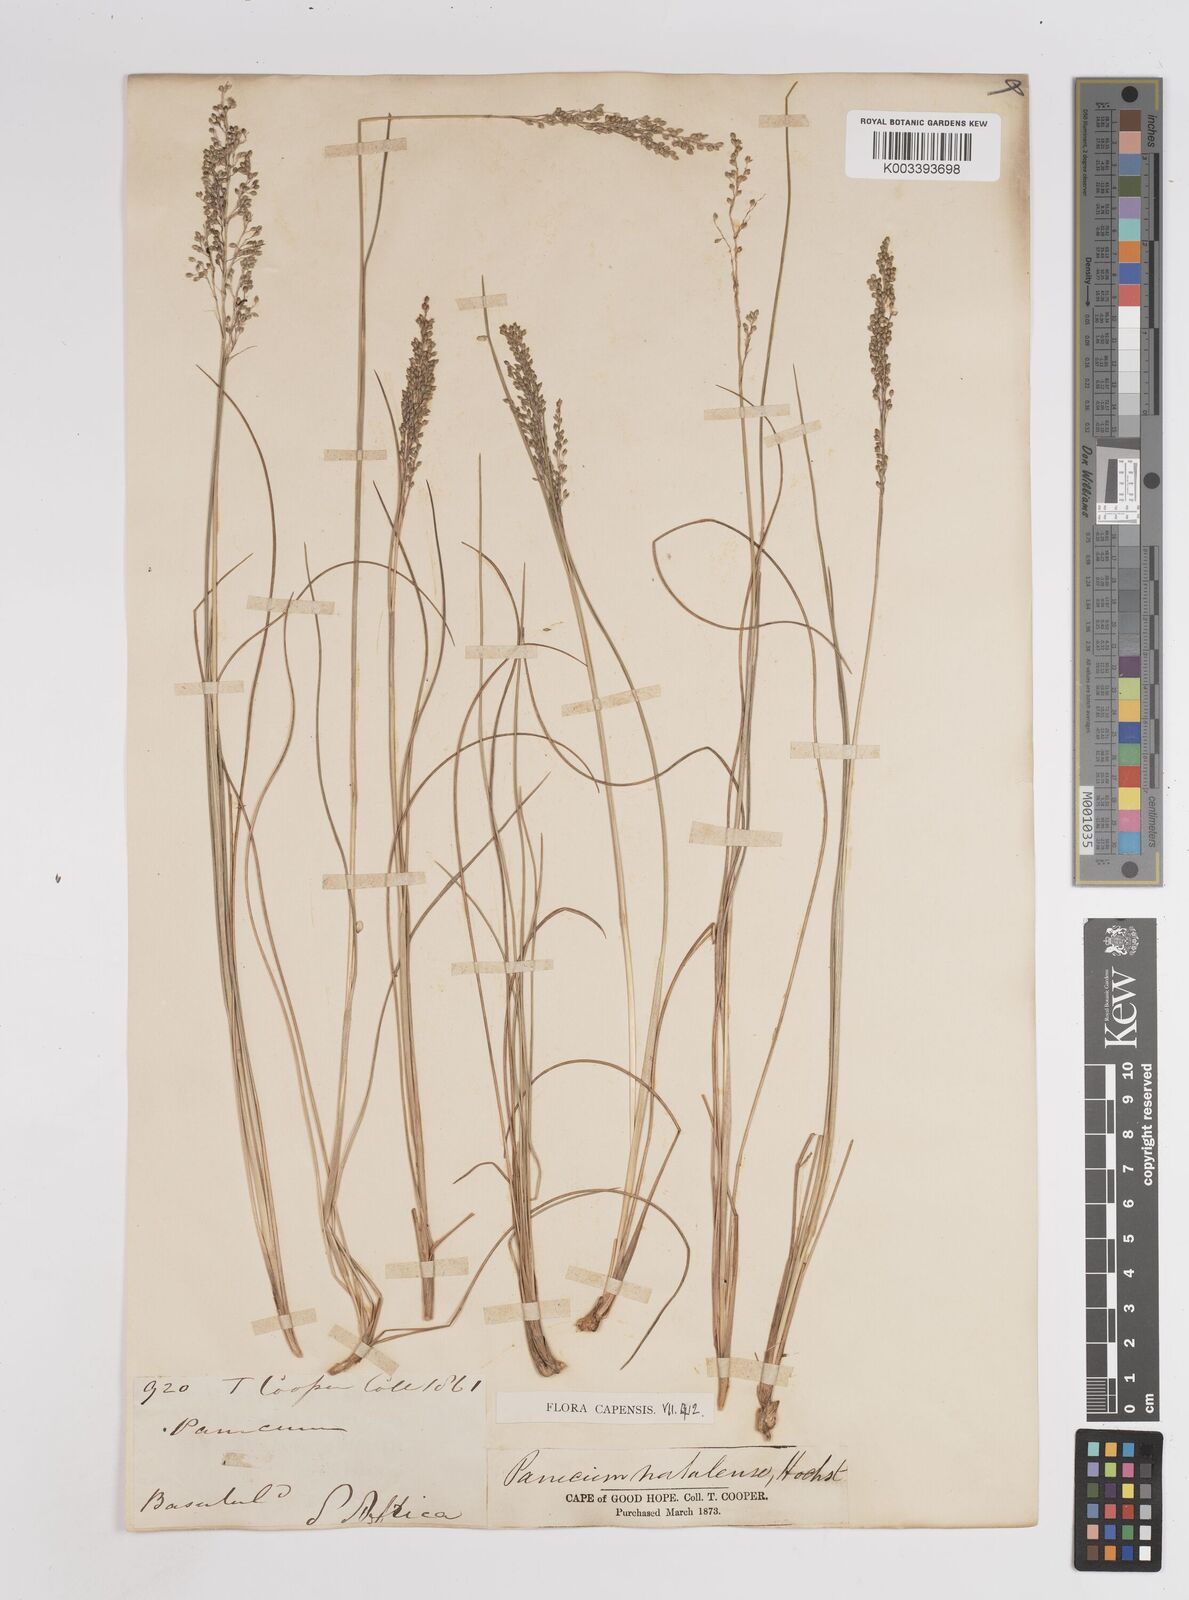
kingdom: Plantae
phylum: Tracheophyta
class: Liliopsida
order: Poales
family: Poaceae
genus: Trichanthecium
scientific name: Trichanthecium natalense
